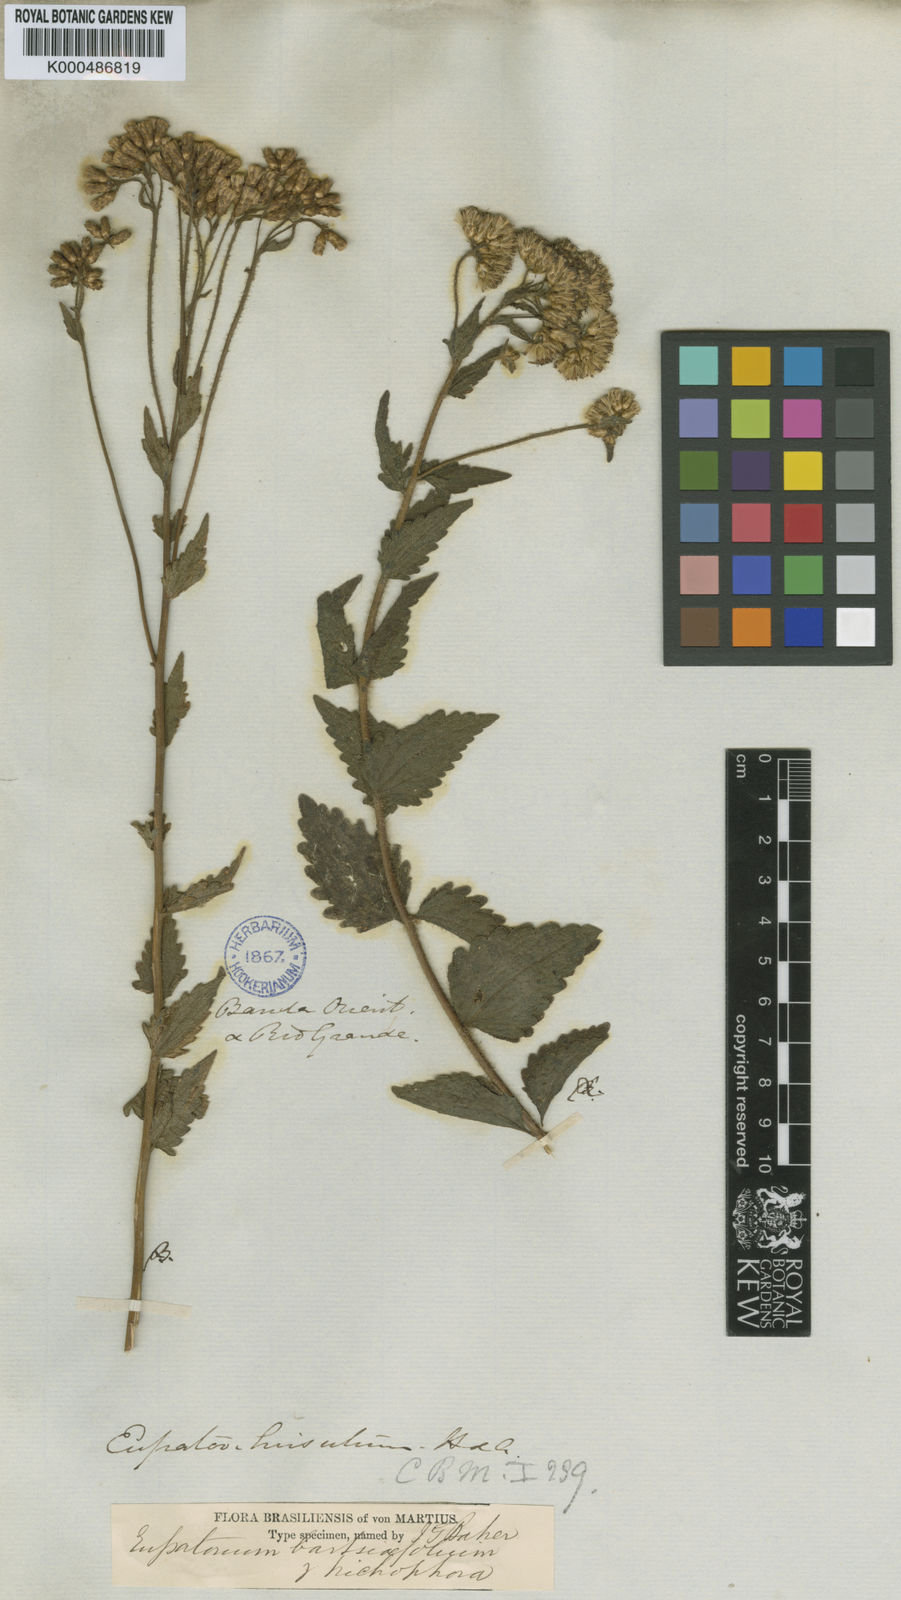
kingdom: Plantae
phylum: Tracheophyta
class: Magnoliopsida
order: Asterales
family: Asteraceae
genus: Chromolaena
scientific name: Chromolaena hirsuta
